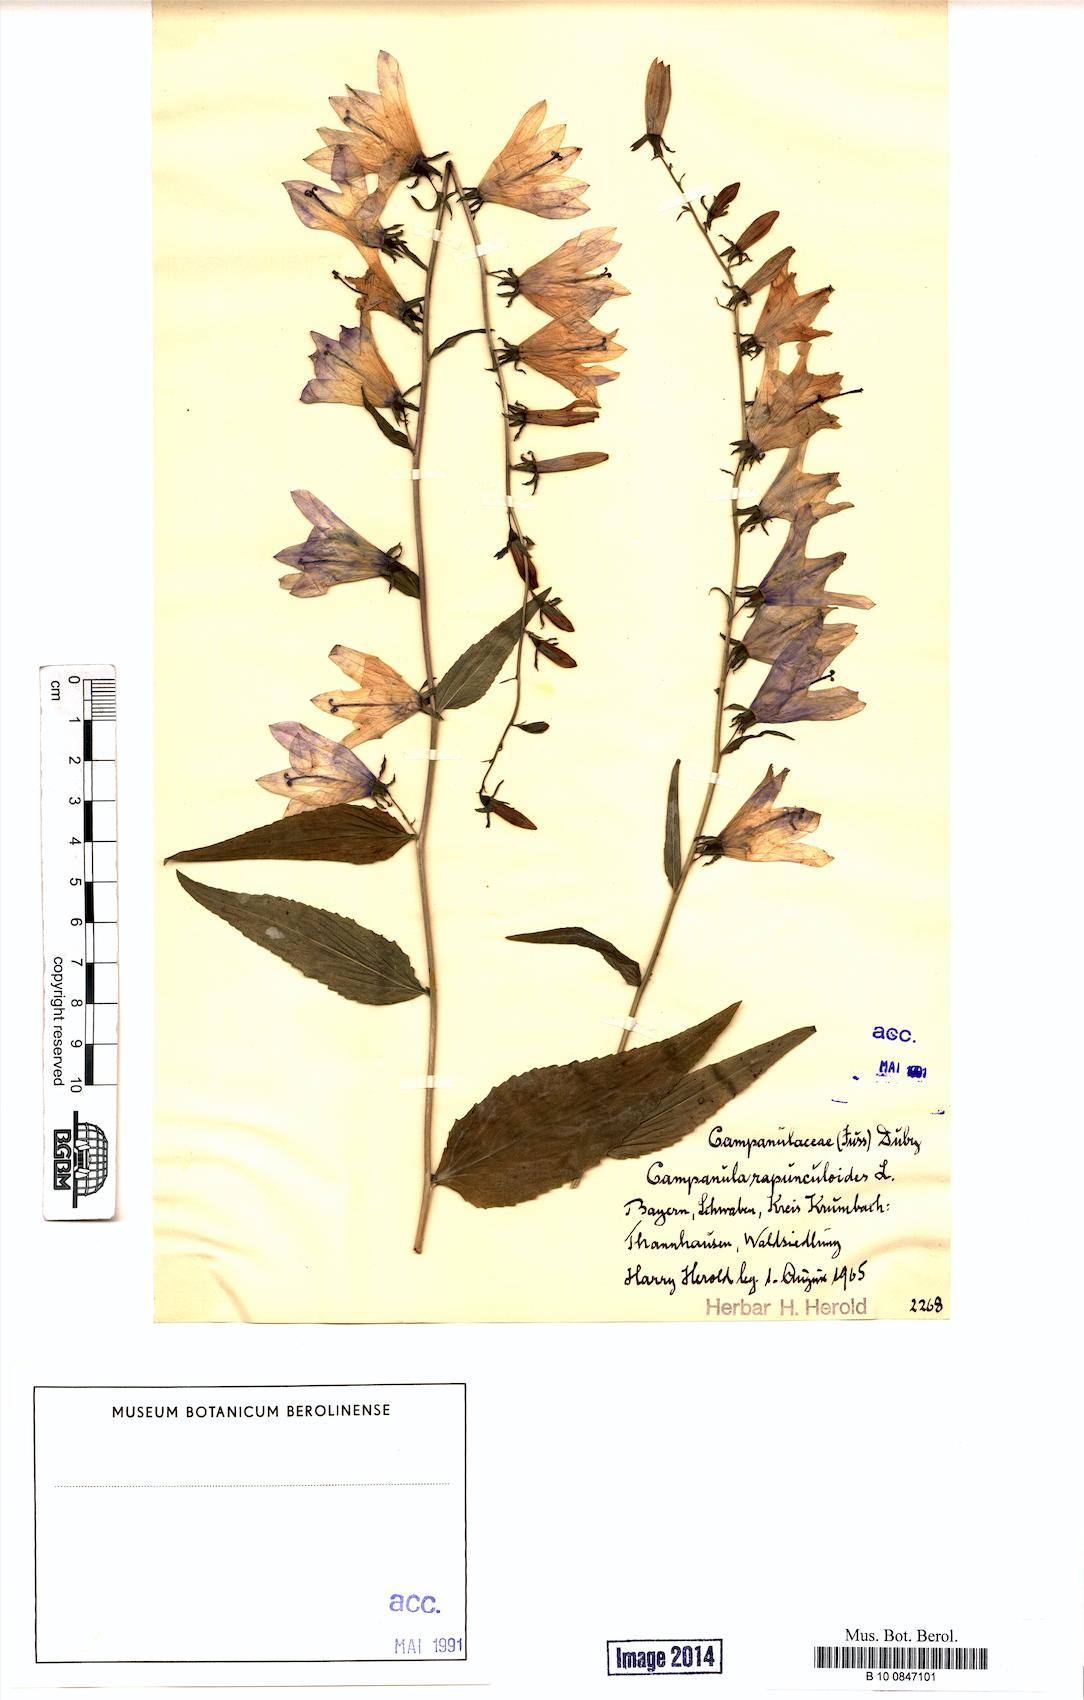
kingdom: Plantae
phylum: Tracheophyta
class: Magnoliopsida
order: Asterales
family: Campanulaceae
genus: Campanula
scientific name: Campanula rapunculoides
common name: Creeping bellflower
